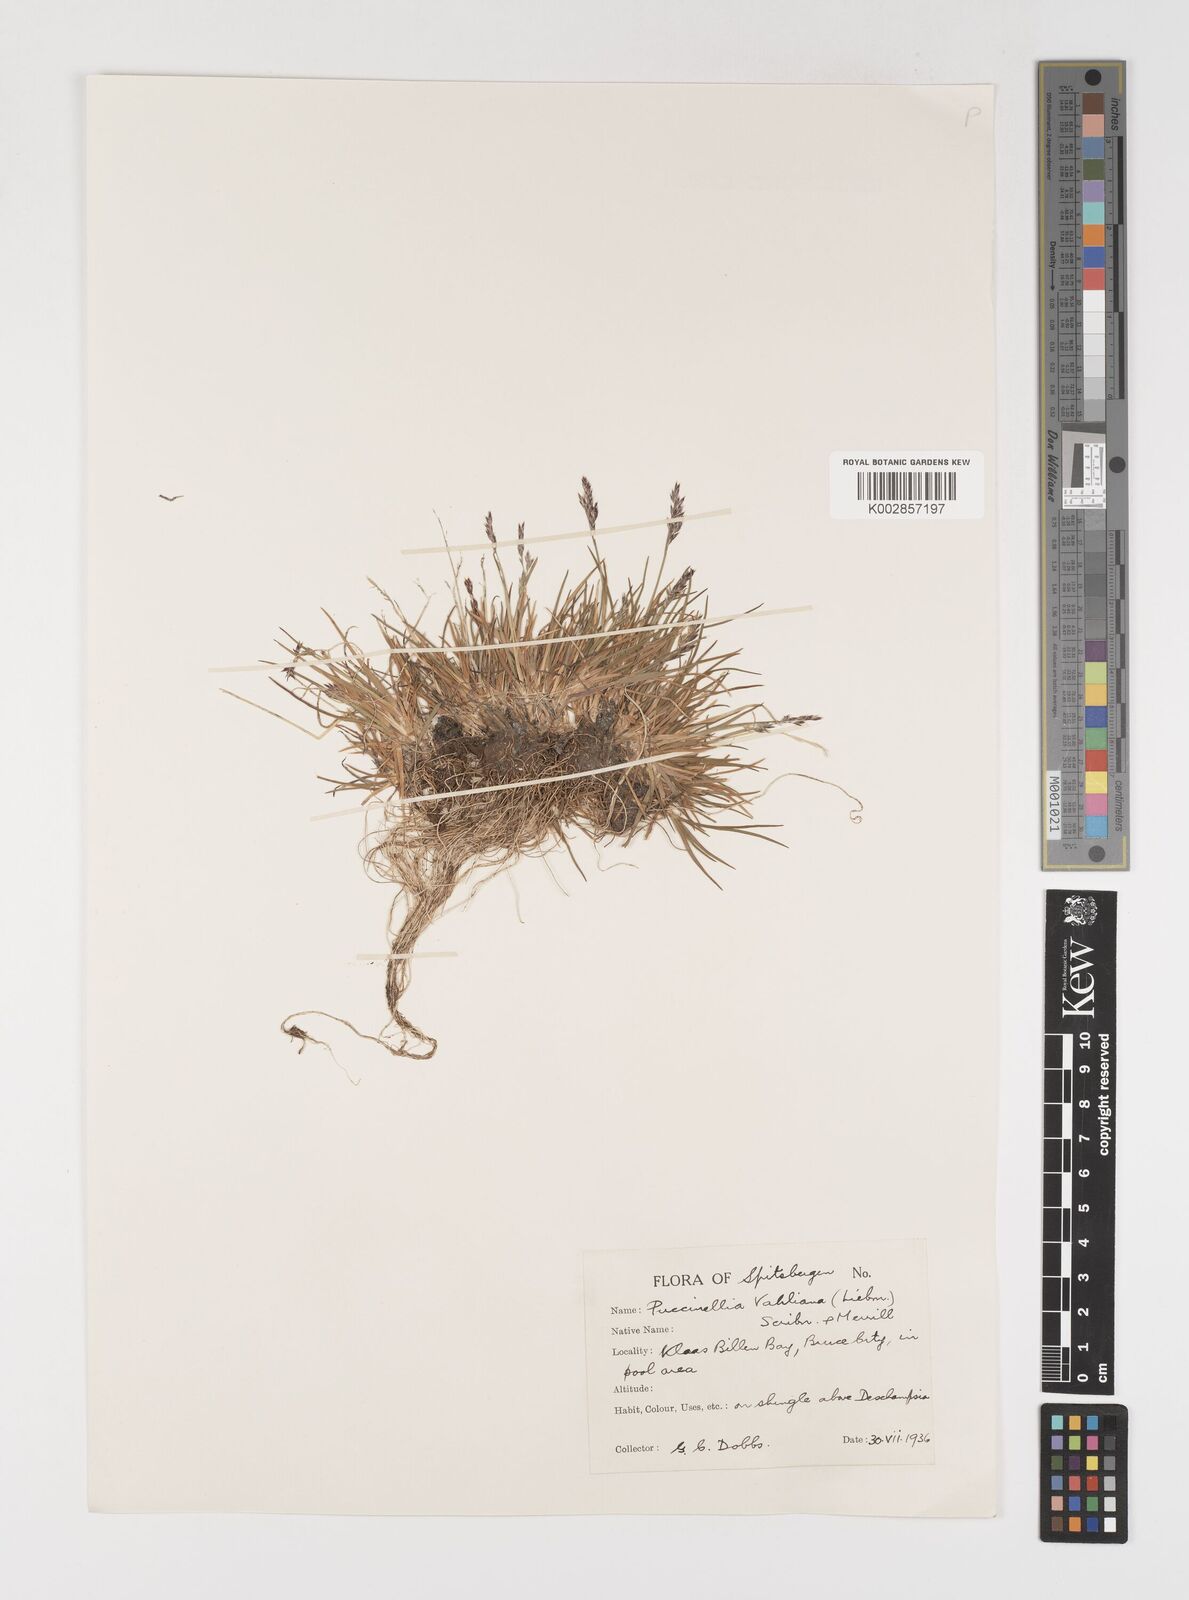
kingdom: Plantae
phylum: Tracheophyta
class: Liliopsida
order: Poales
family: Poaceae
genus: Puccinellia
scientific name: Puccinellia vahliana
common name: Vahl's alkaligrass
